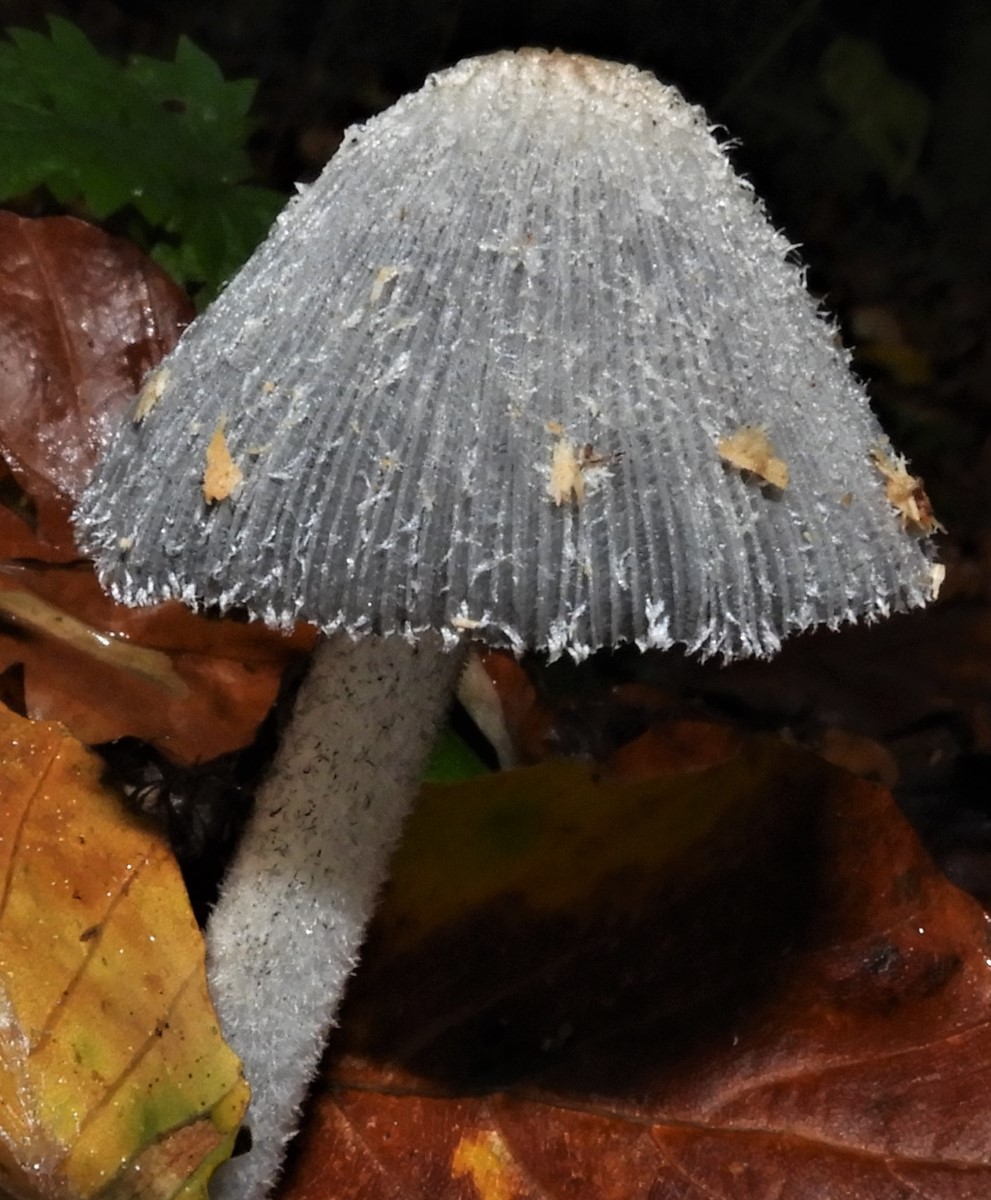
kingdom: Fungi
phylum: Basidiomycota
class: Agaricomycetes
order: Agaricales
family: Psathyrellaceae
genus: Coprinopsis
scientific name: Coprinopsis lagopus
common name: dunstokket blækhat
